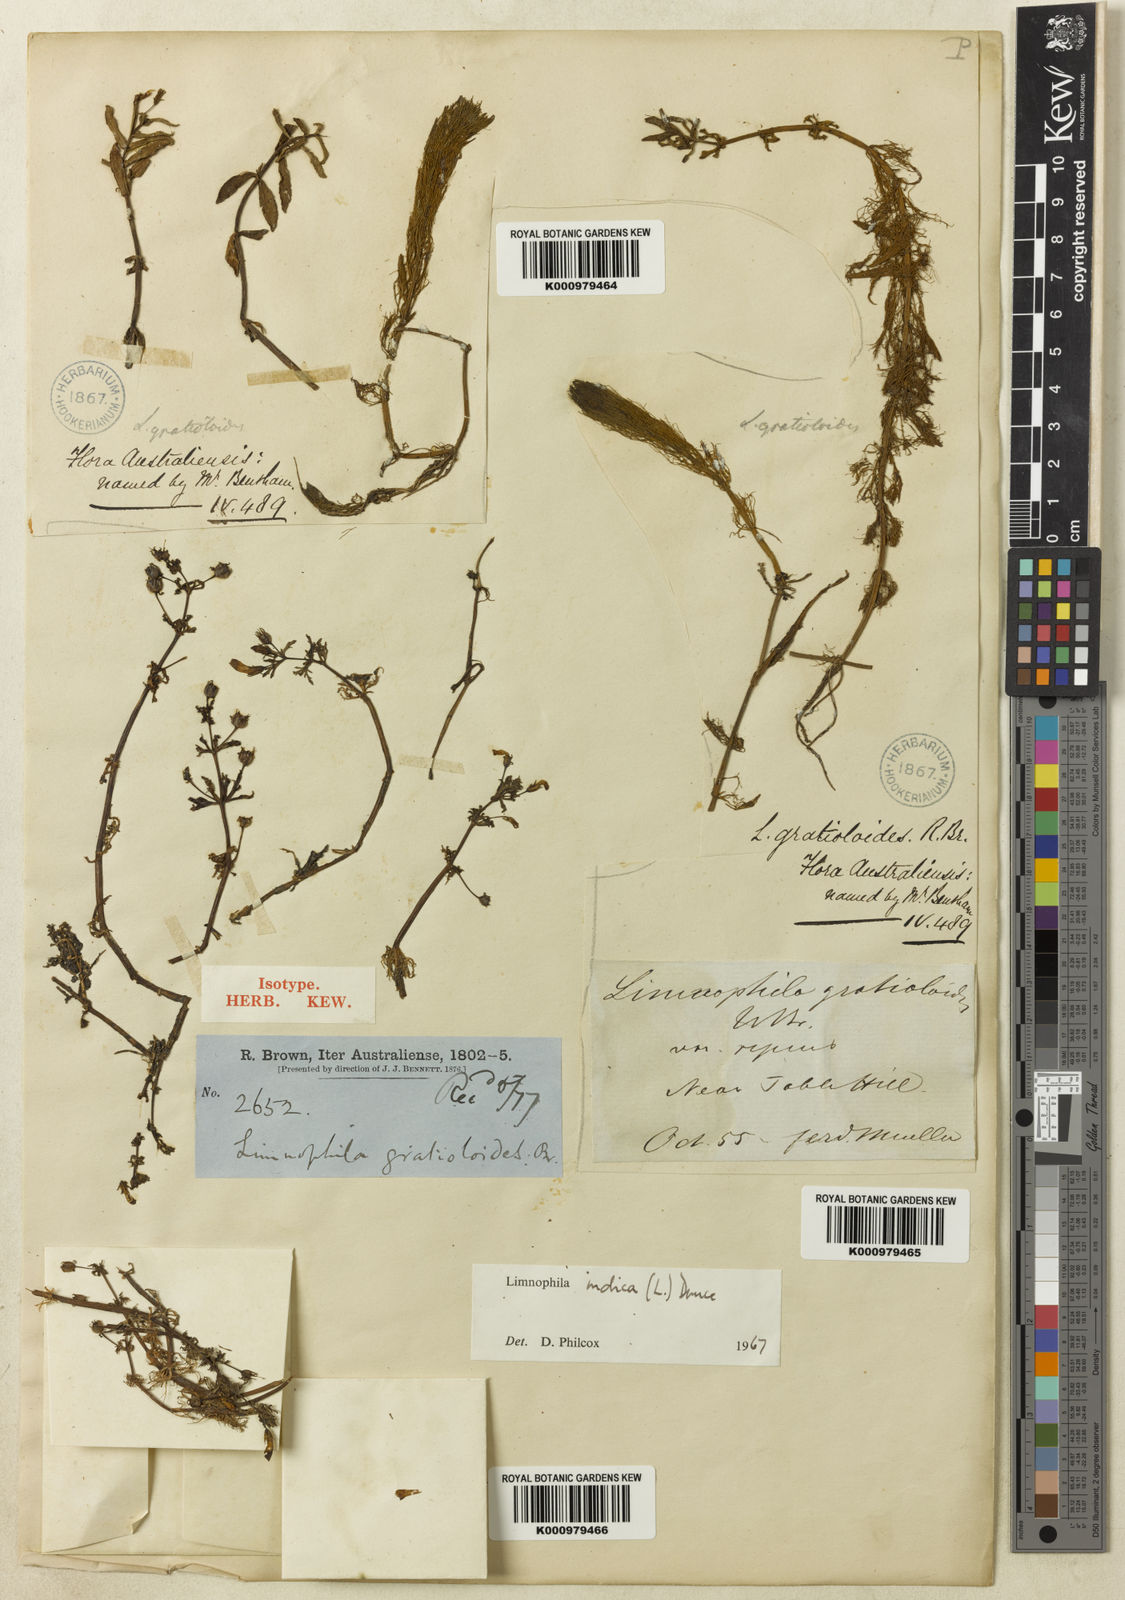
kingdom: Plantae
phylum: Tracheophyta
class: Magnoliopsida
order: Lamiales
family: Plantaginaceae
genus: Limnophila
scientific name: Limnophila indica
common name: Indian marshweed
